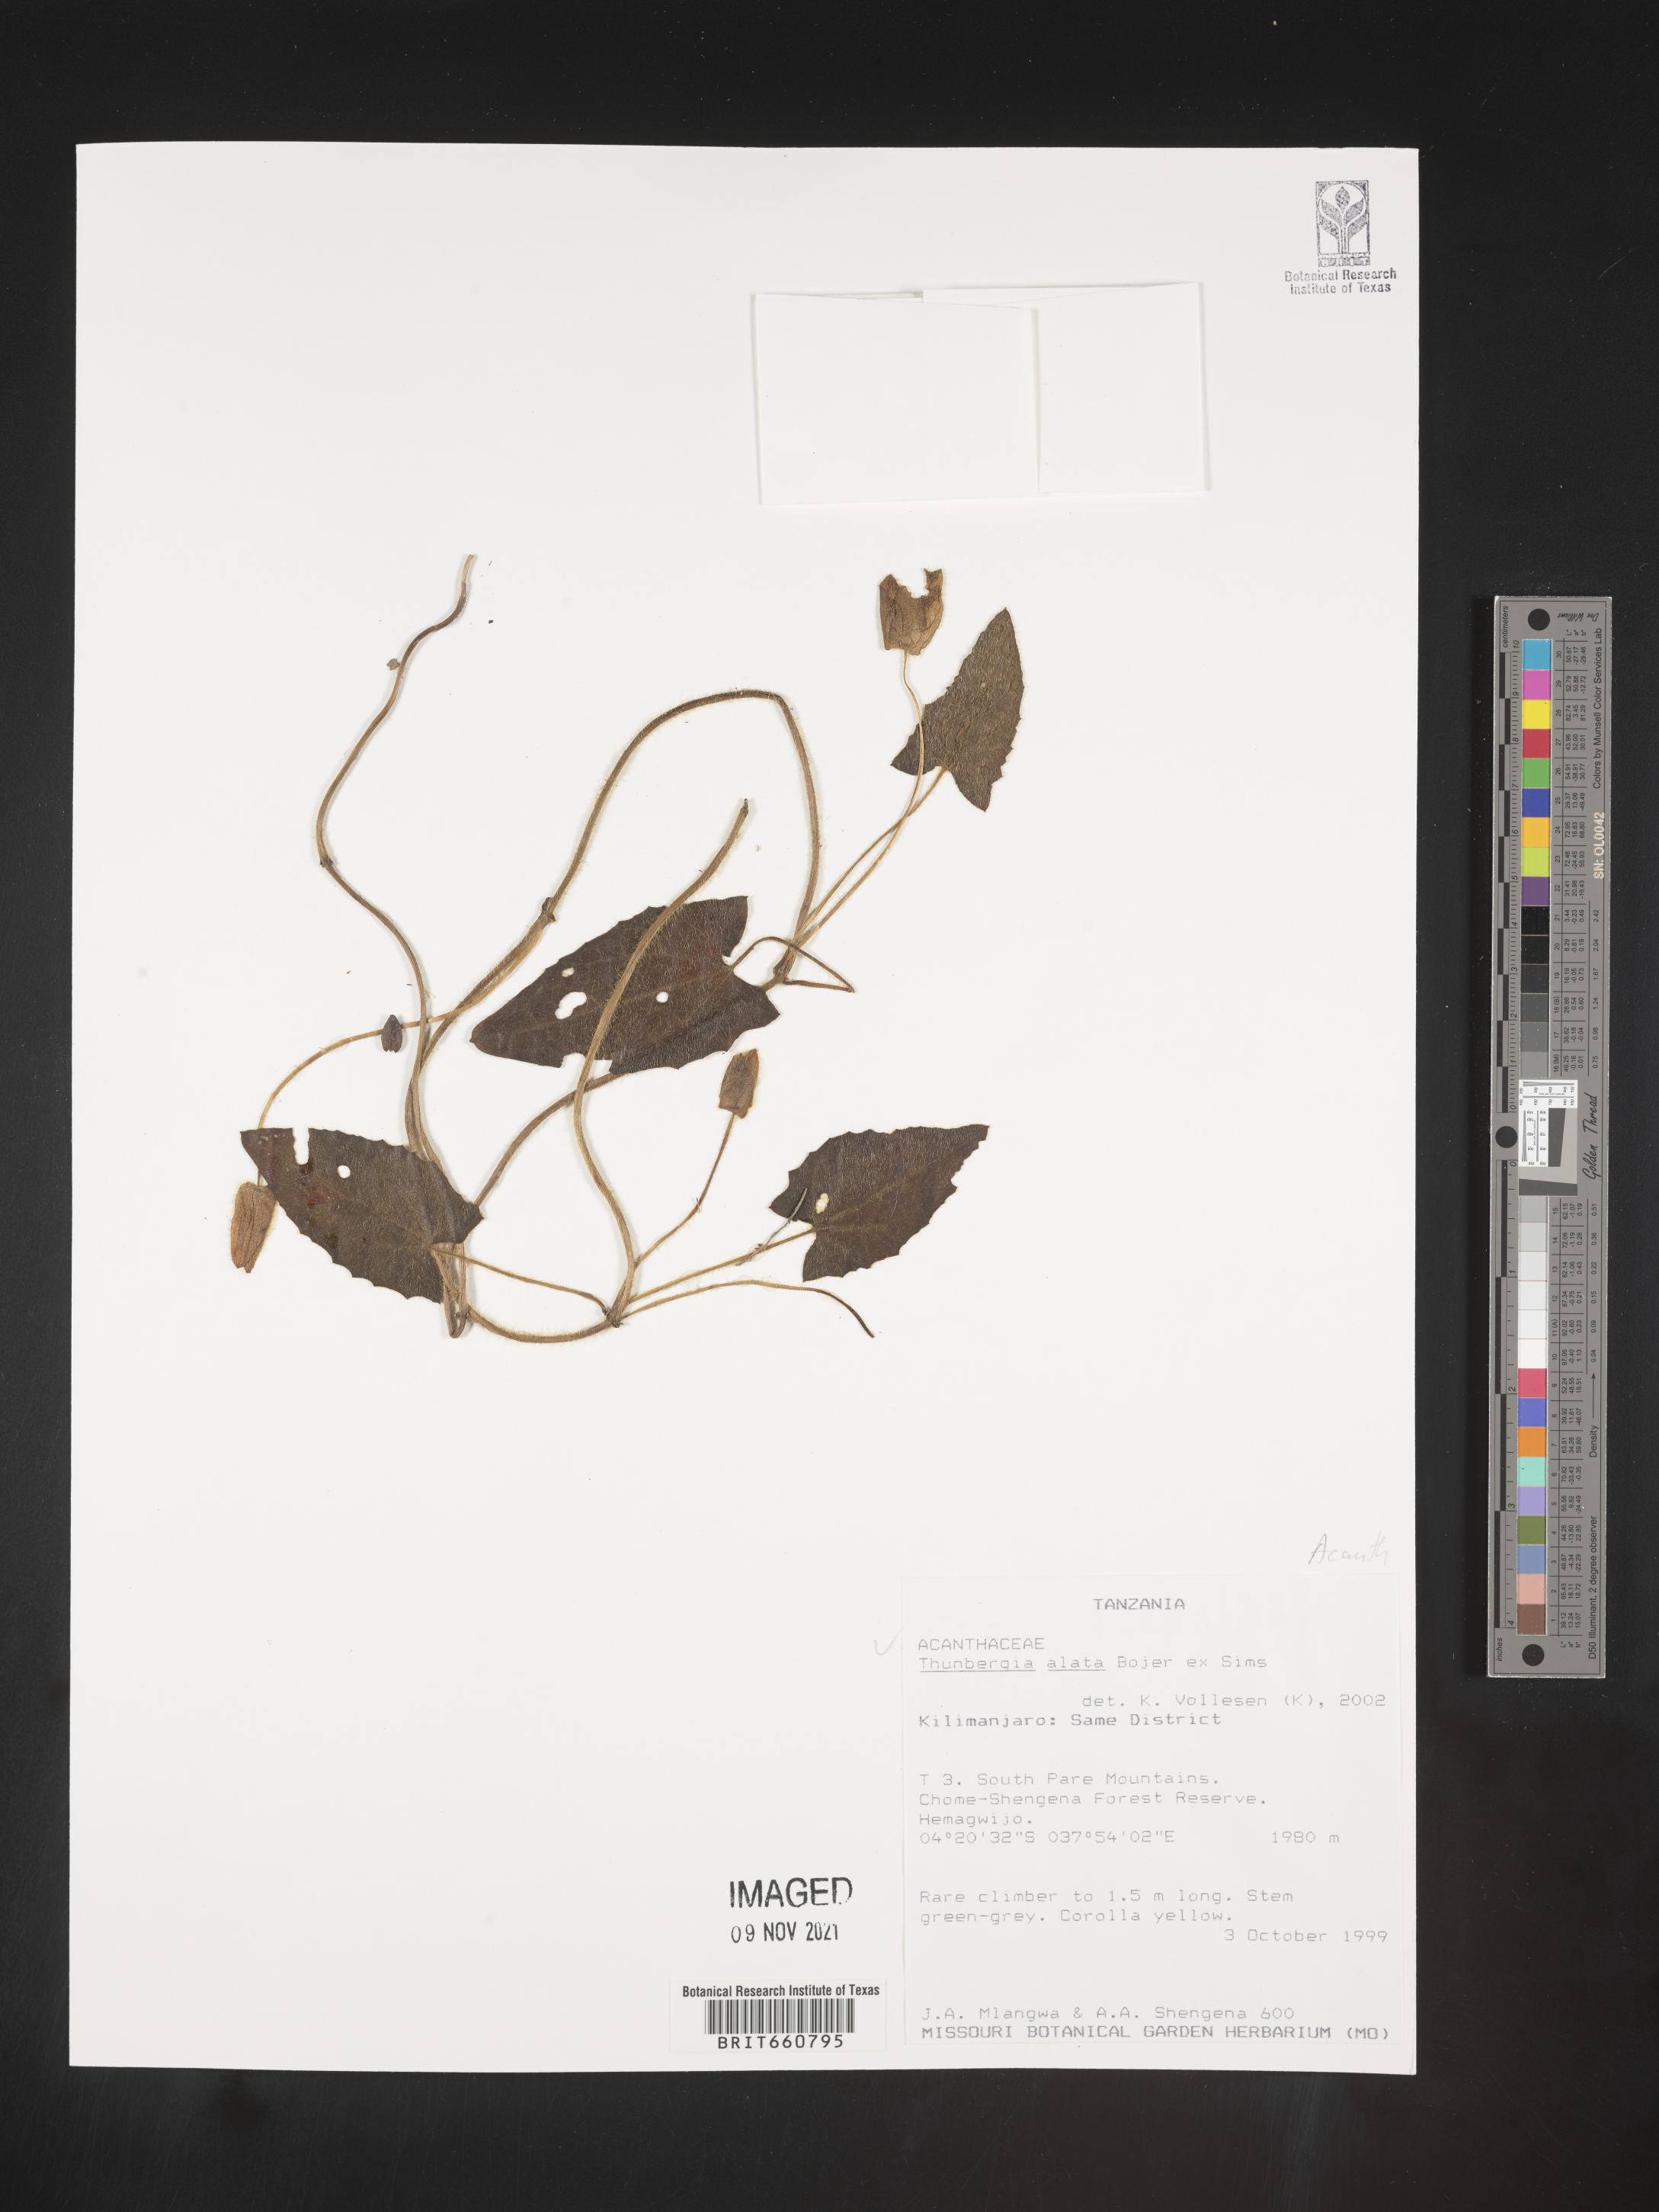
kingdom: Plantae
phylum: Tracheophyta
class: Magnoliopsida
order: Lamiales
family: Acanthaceae
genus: Thunbergia
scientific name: Thunbergia
